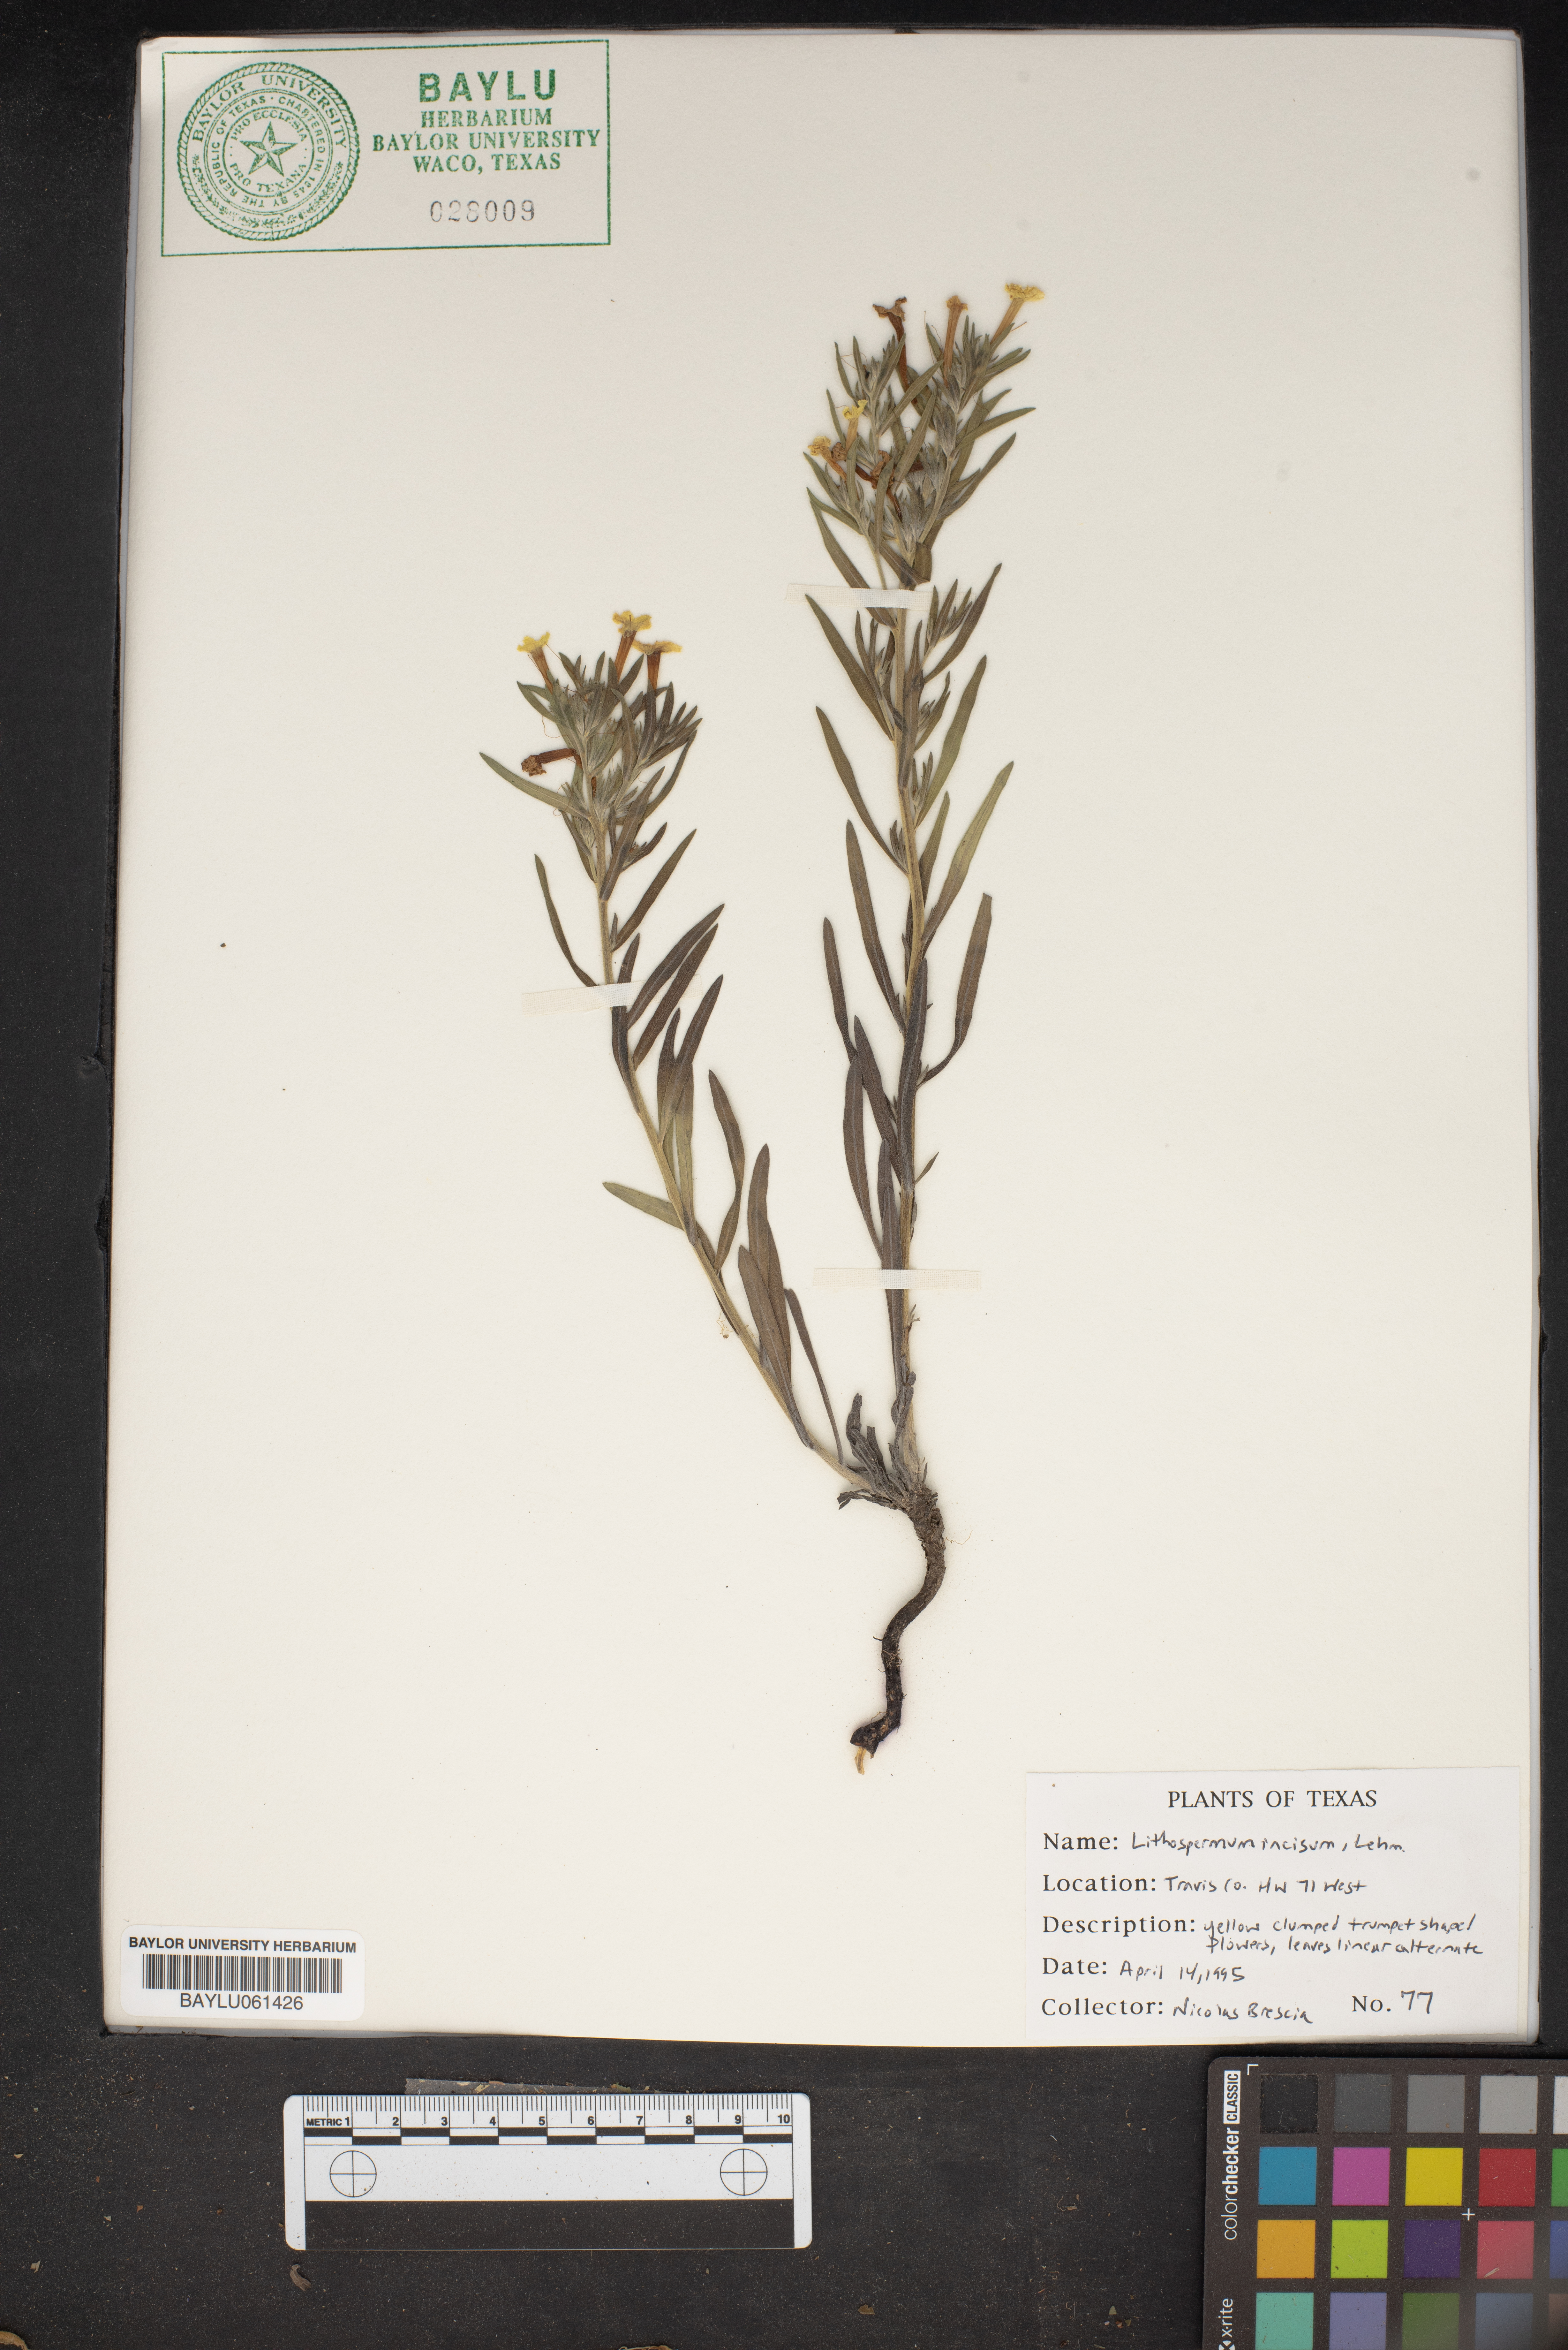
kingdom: Plantae
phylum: Tracheophyta
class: Magnoliopsida
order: Boraginales
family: Boraginaceae
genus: Lithospermum
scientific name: Lithospermum incisum
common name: Fringed gromwell
